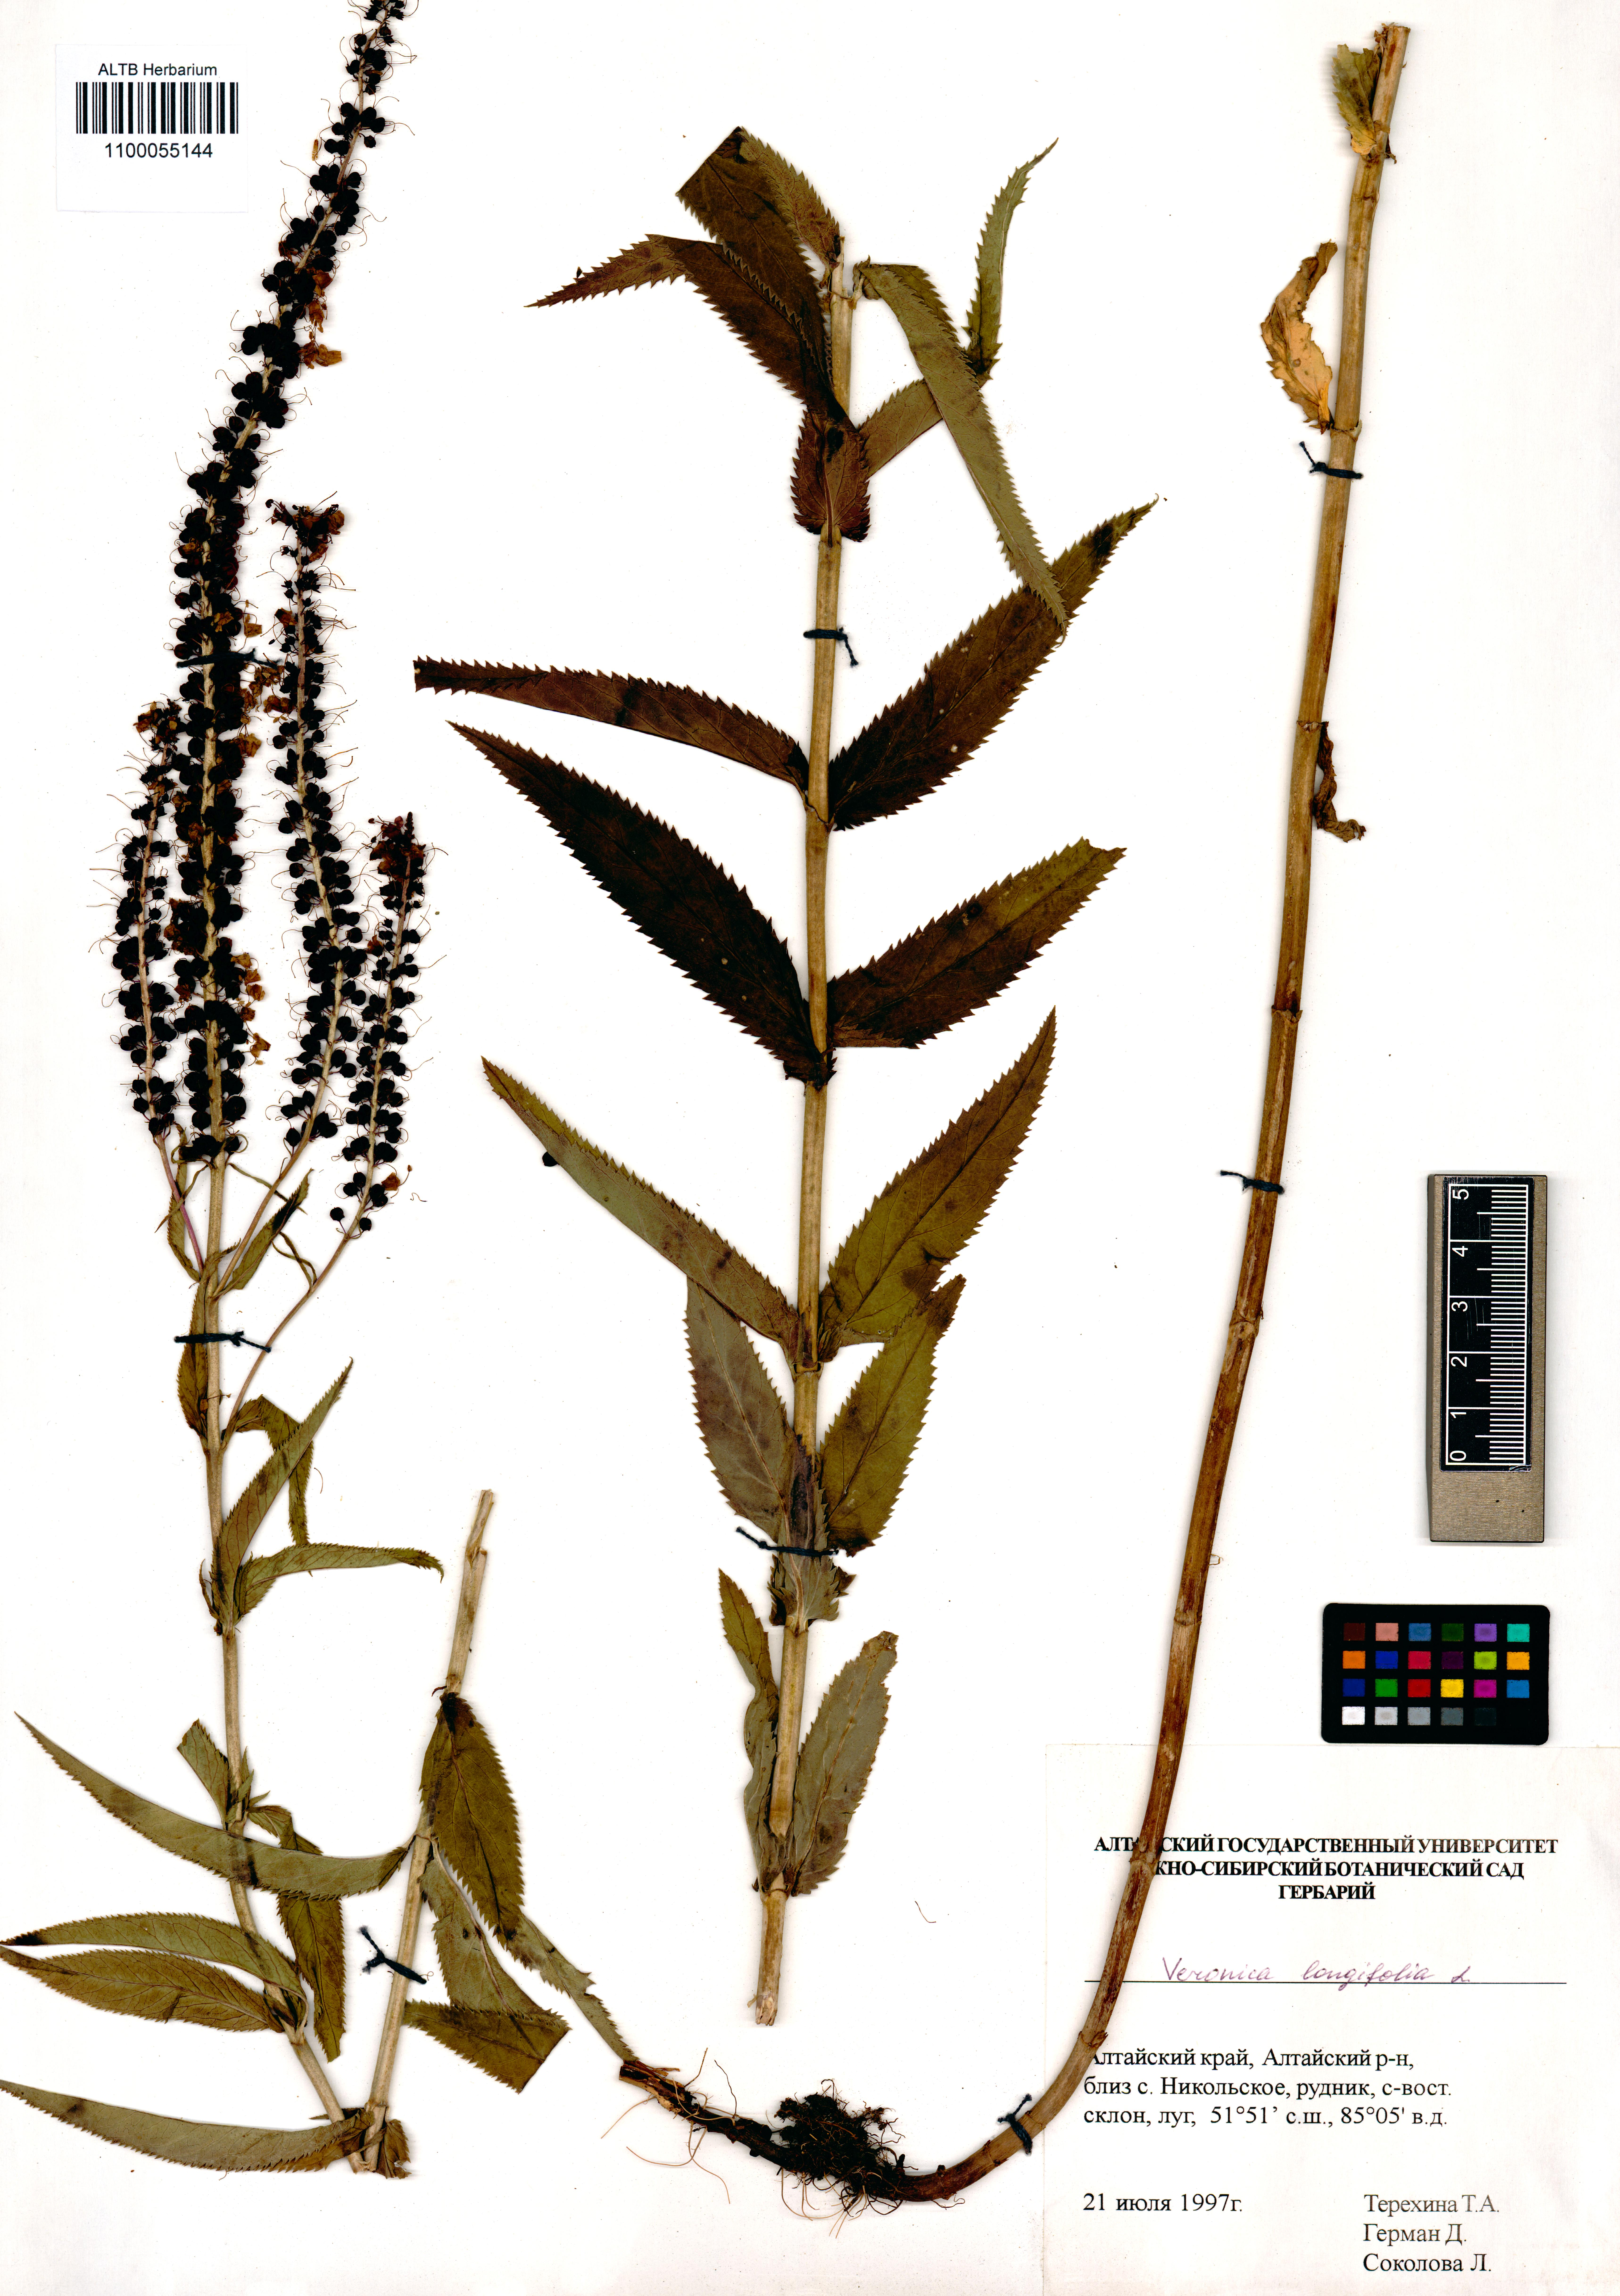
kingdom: Plantae
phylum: Tracheophyta
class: Magnoliopsida
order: Lamiales
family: Plantaginaceae
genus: Veronica
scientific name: Veronica longifolia
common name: Garden speedwell
